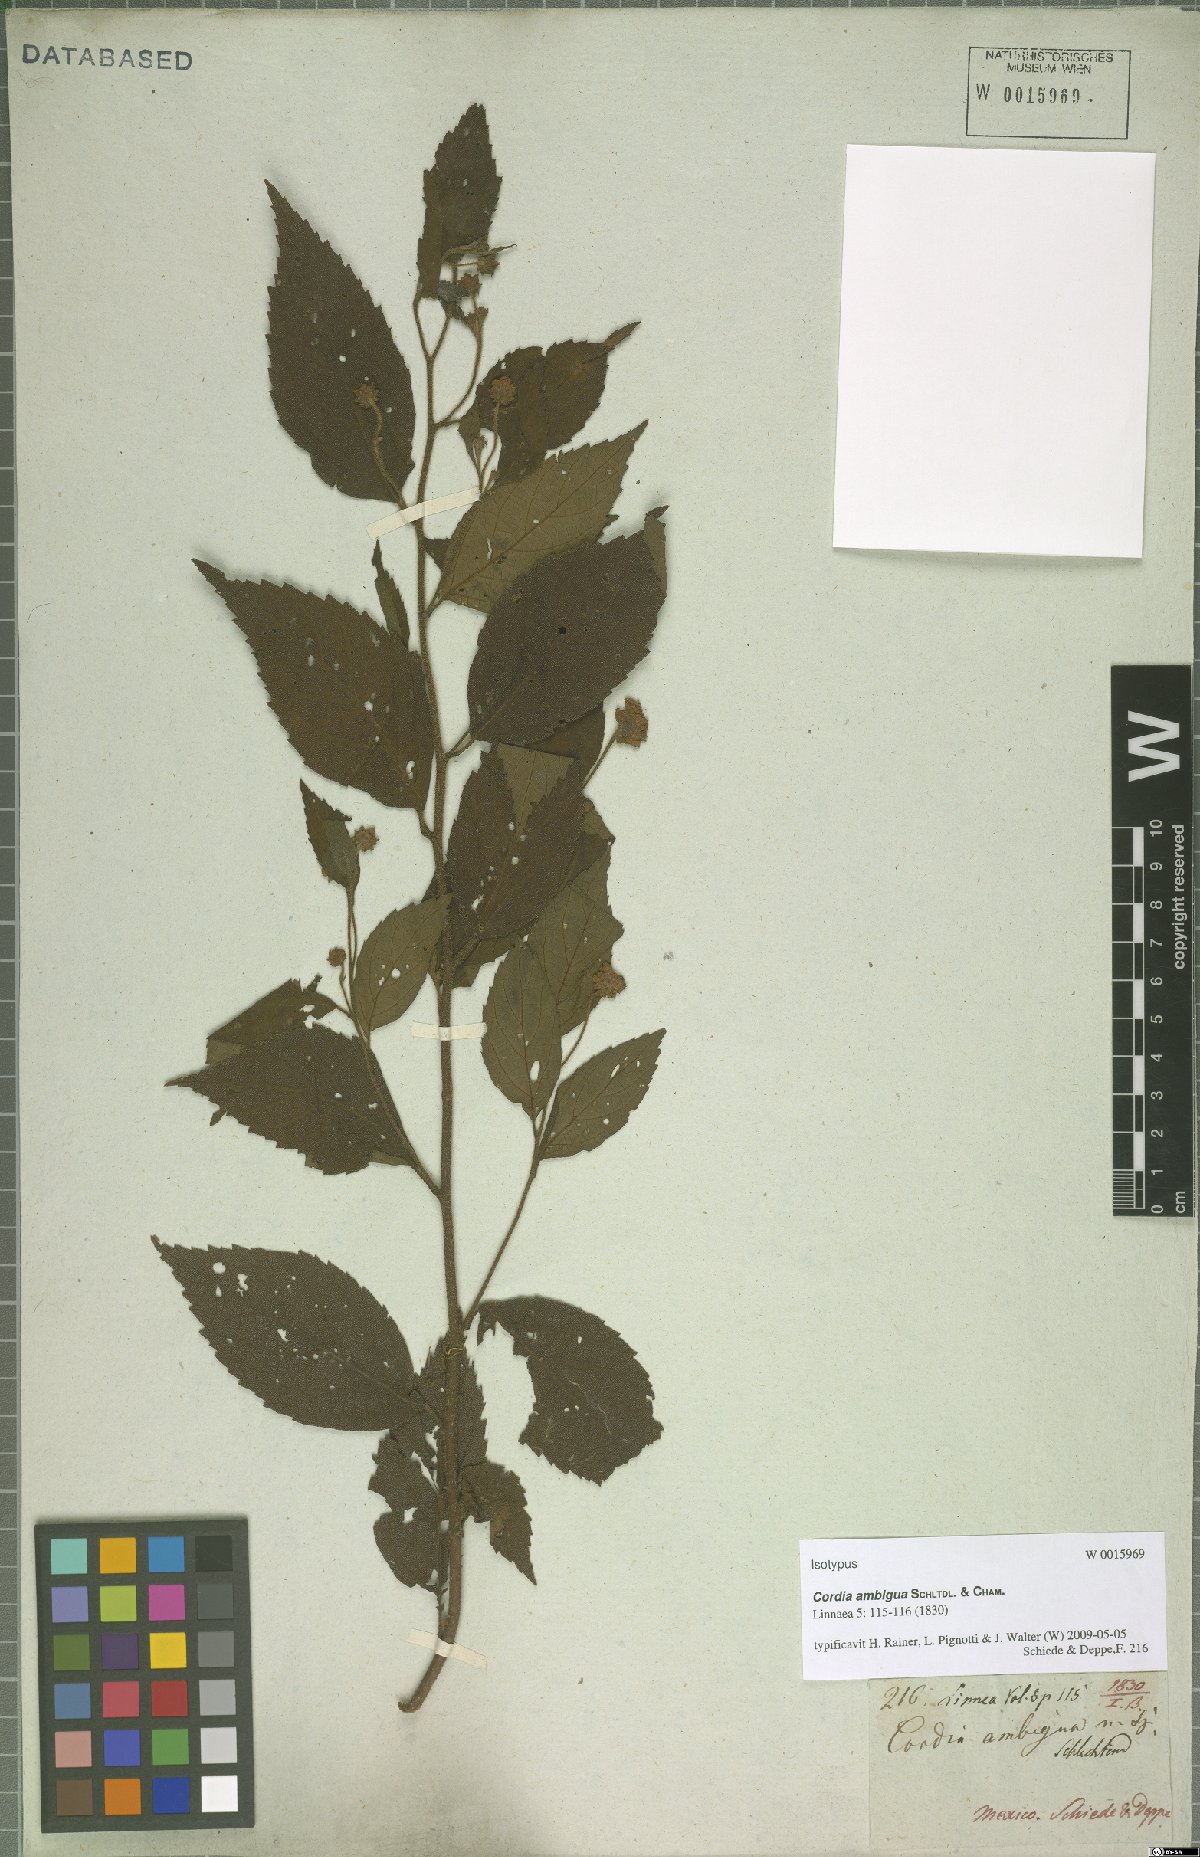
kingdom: Plantae
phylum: Tracheophyta
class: Magnoliopsida
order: Boraginales
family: Cordiaceae
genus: Varronia
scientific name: Varronia ambigua
